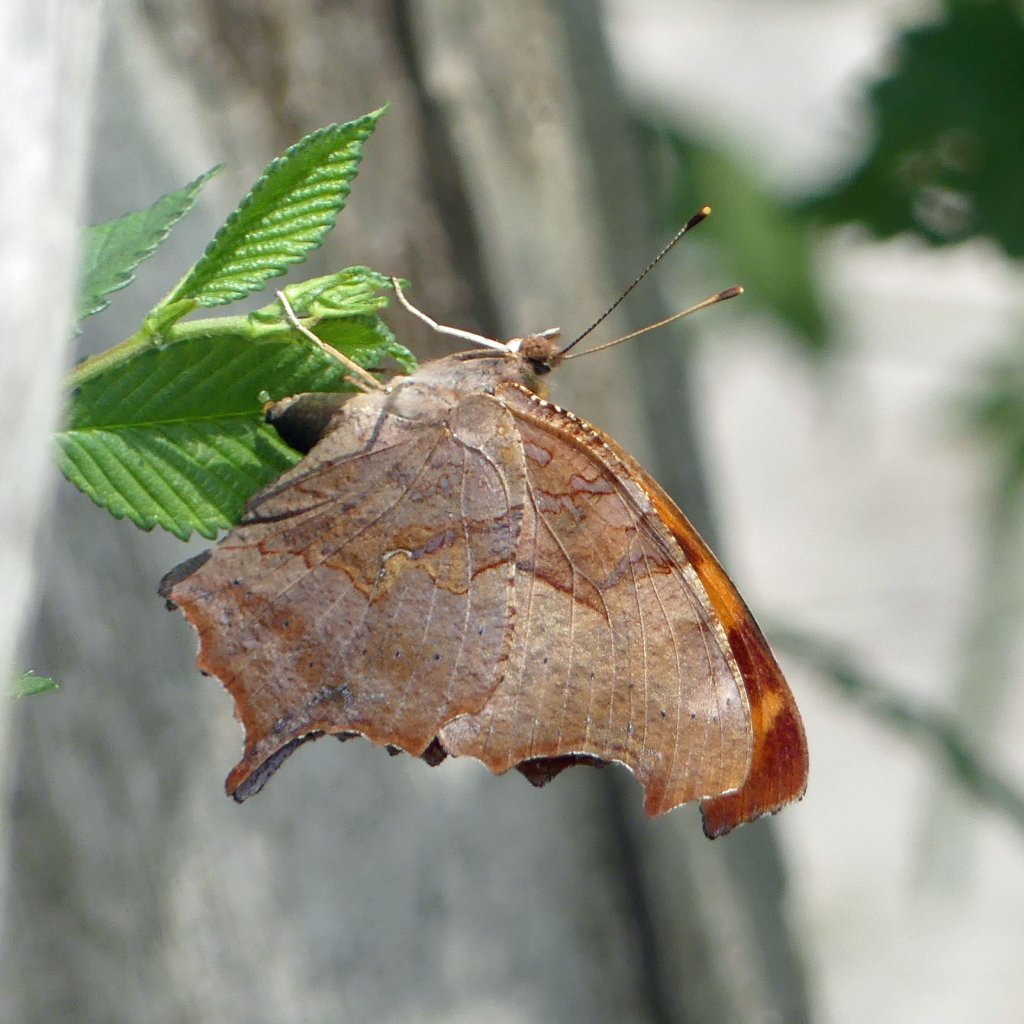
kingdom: Animalia
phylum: Arthropoda
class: Insecta
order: Lepidoptera
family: Nymphalidae
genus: Polygonia
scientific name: Polygonia interrogationis
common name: Question Mark
